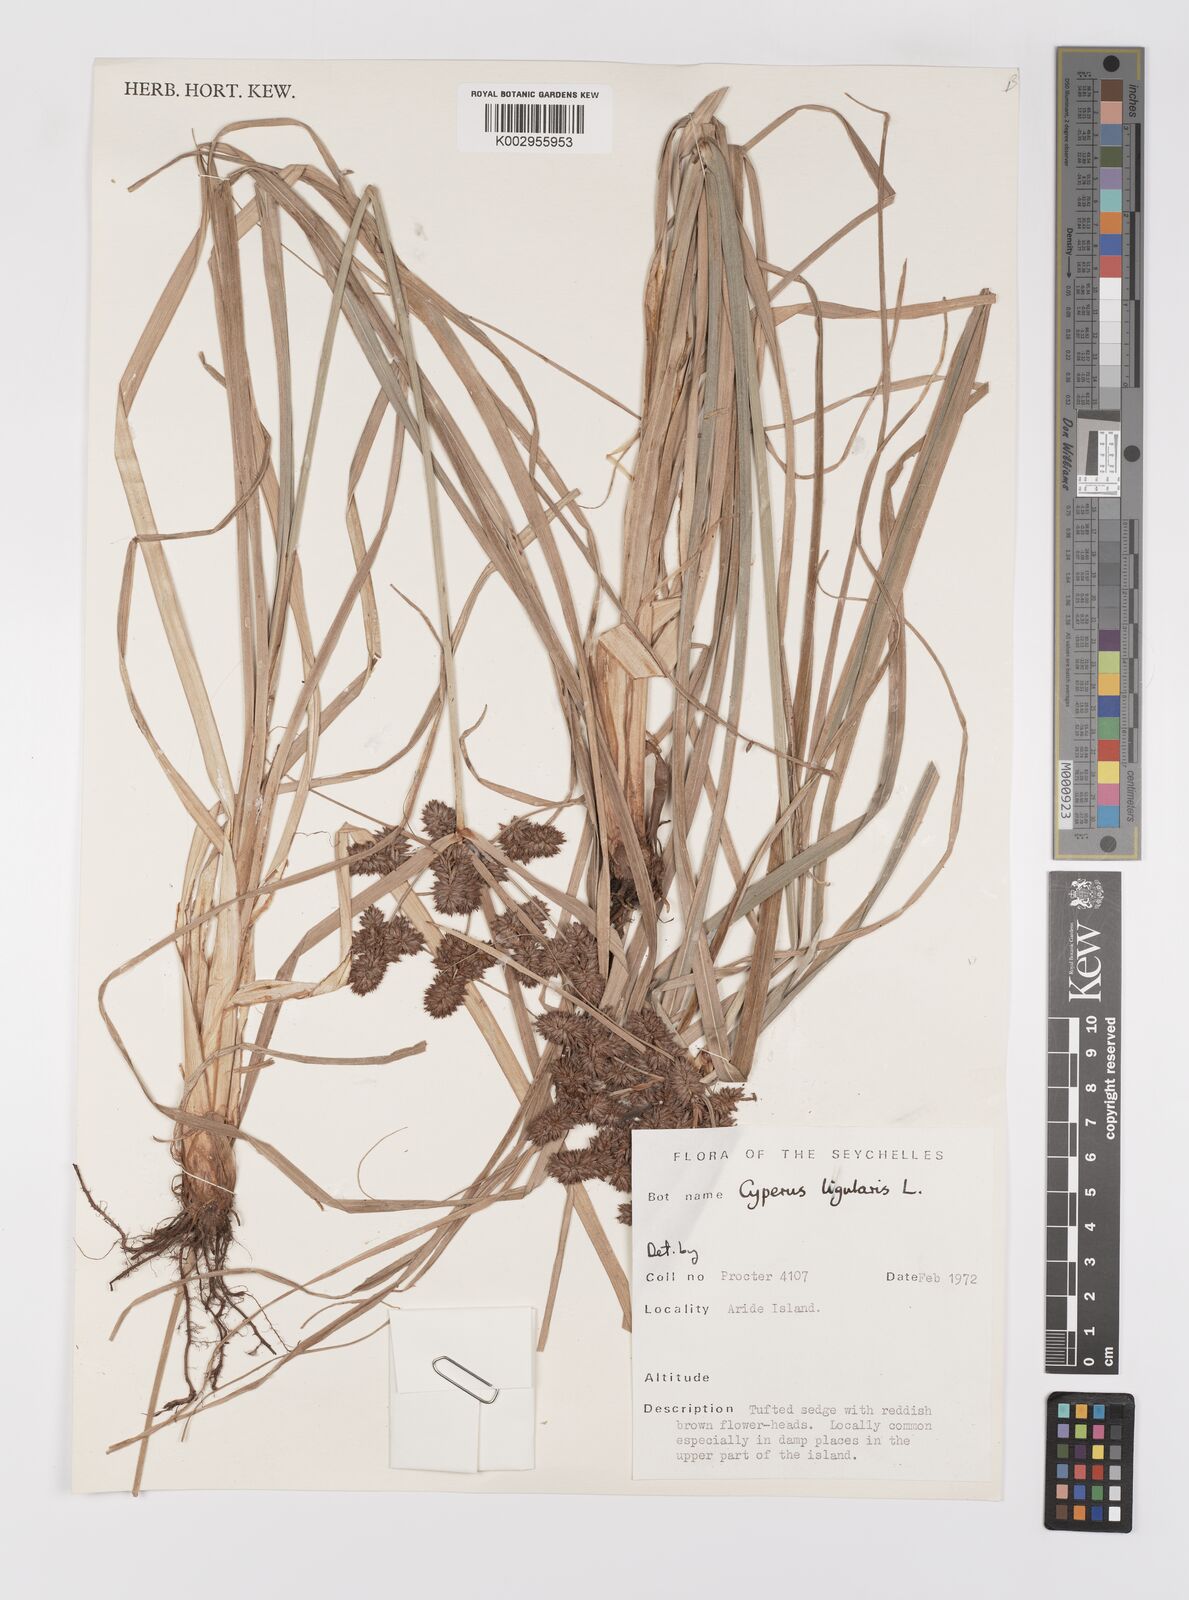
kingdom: Plantae
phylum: Tracheophyta
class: Liliopsida
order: Poales
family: Cyperaceae
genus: Cyperus
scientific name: Cyperus ligularis
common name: Swamp flat sedge
